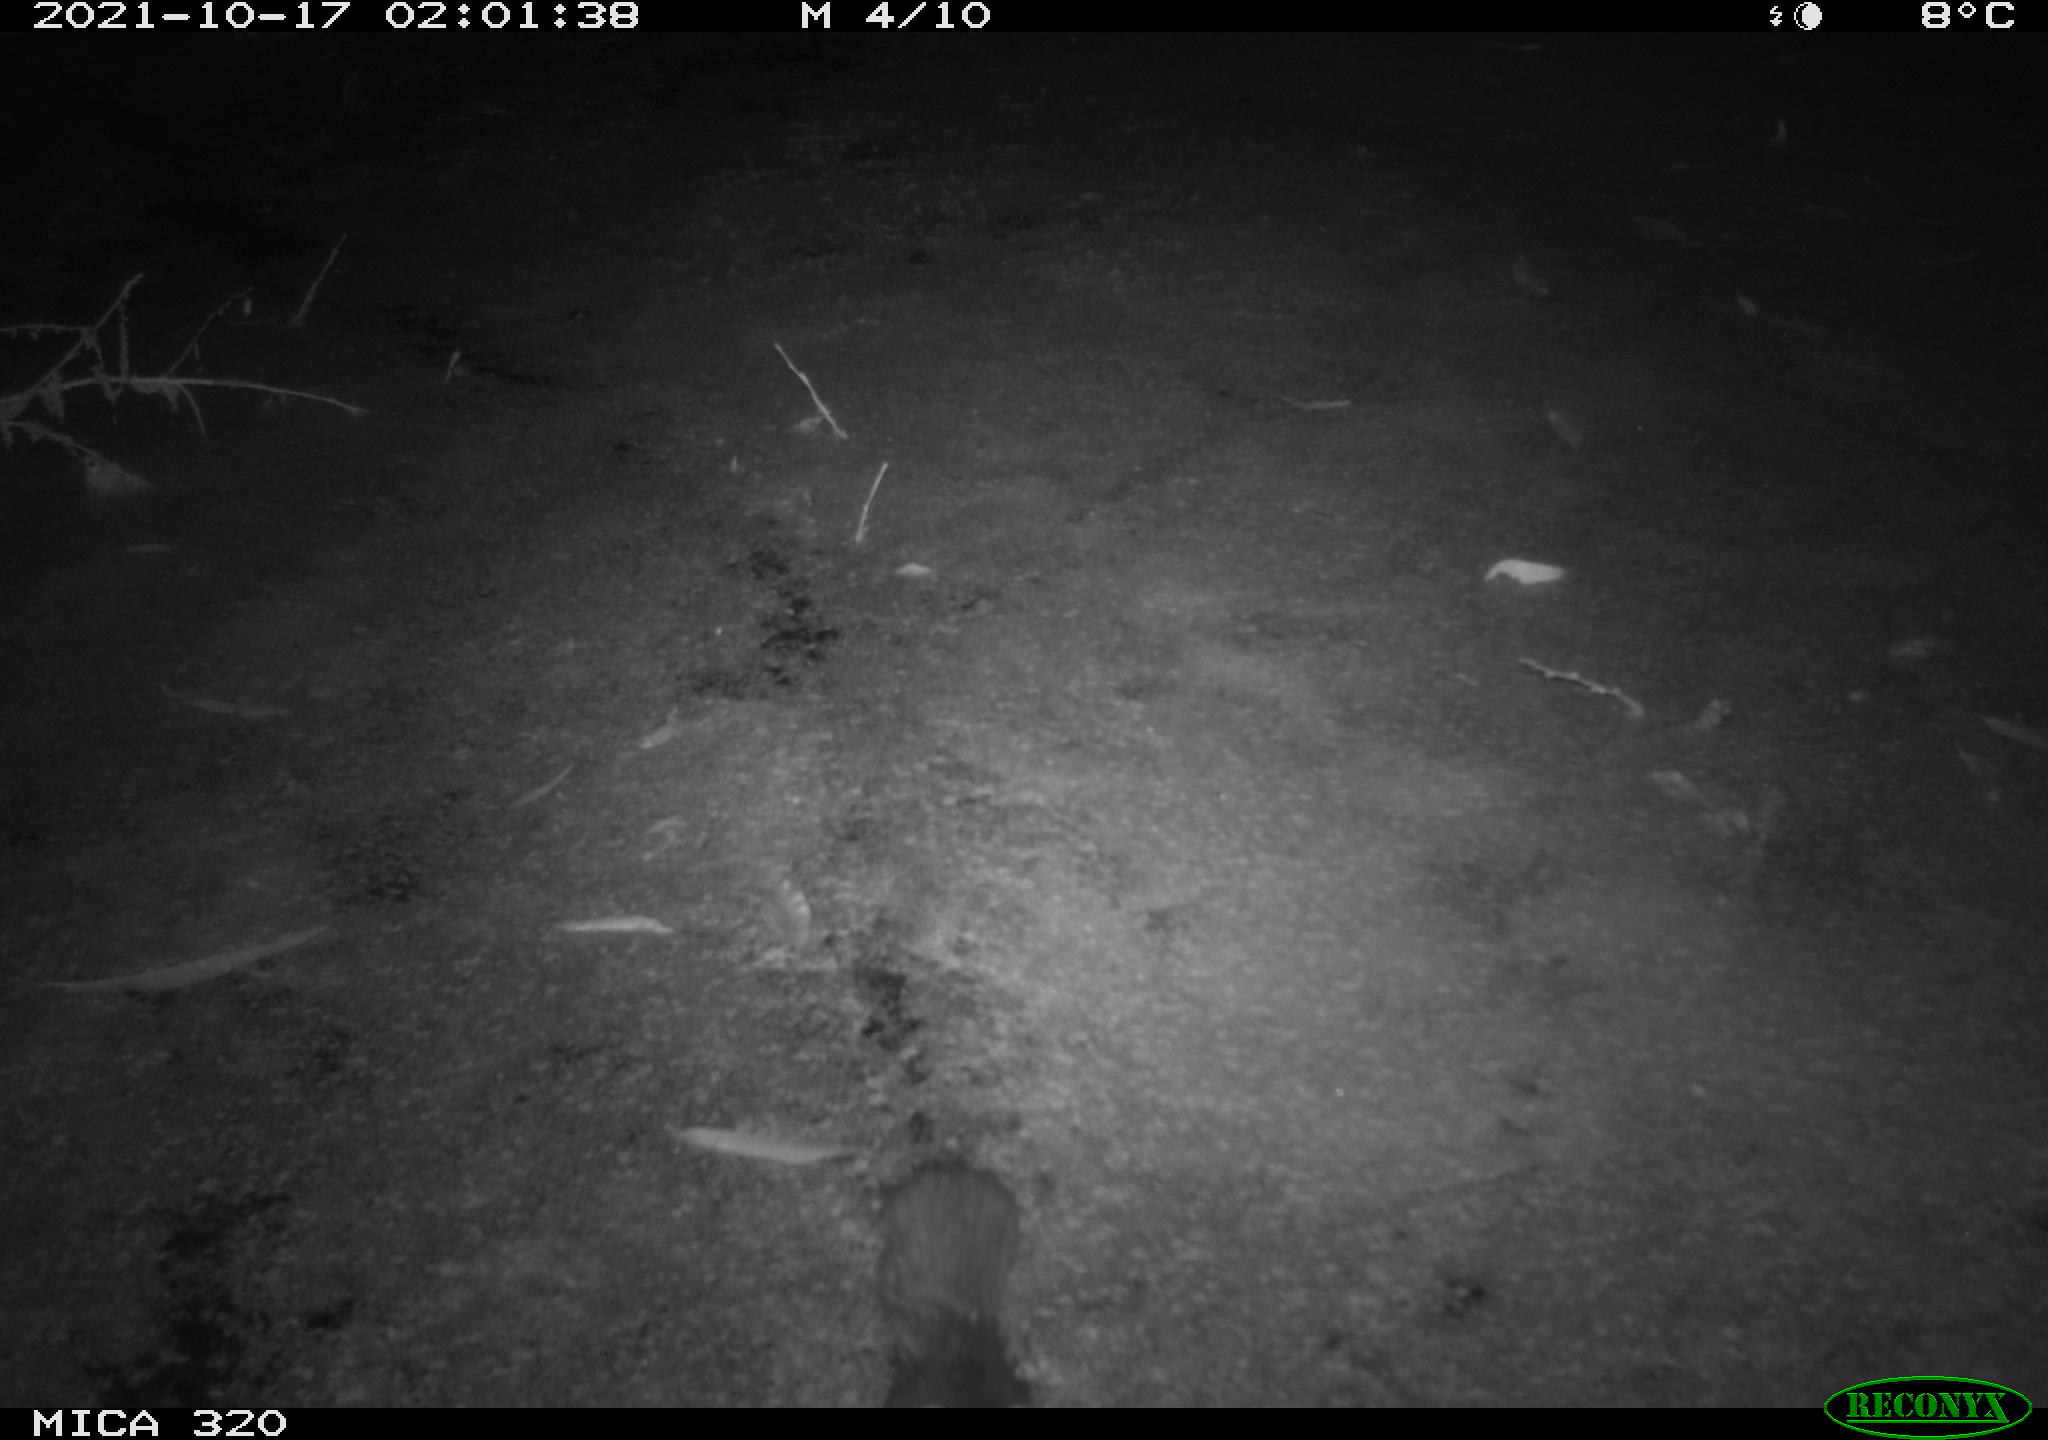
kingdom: Animalia
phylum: Chordata
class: Mammalia
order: Rodentia
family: Muridae
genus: Rattus
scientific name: Rattus norvegicus
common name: Brown rat
